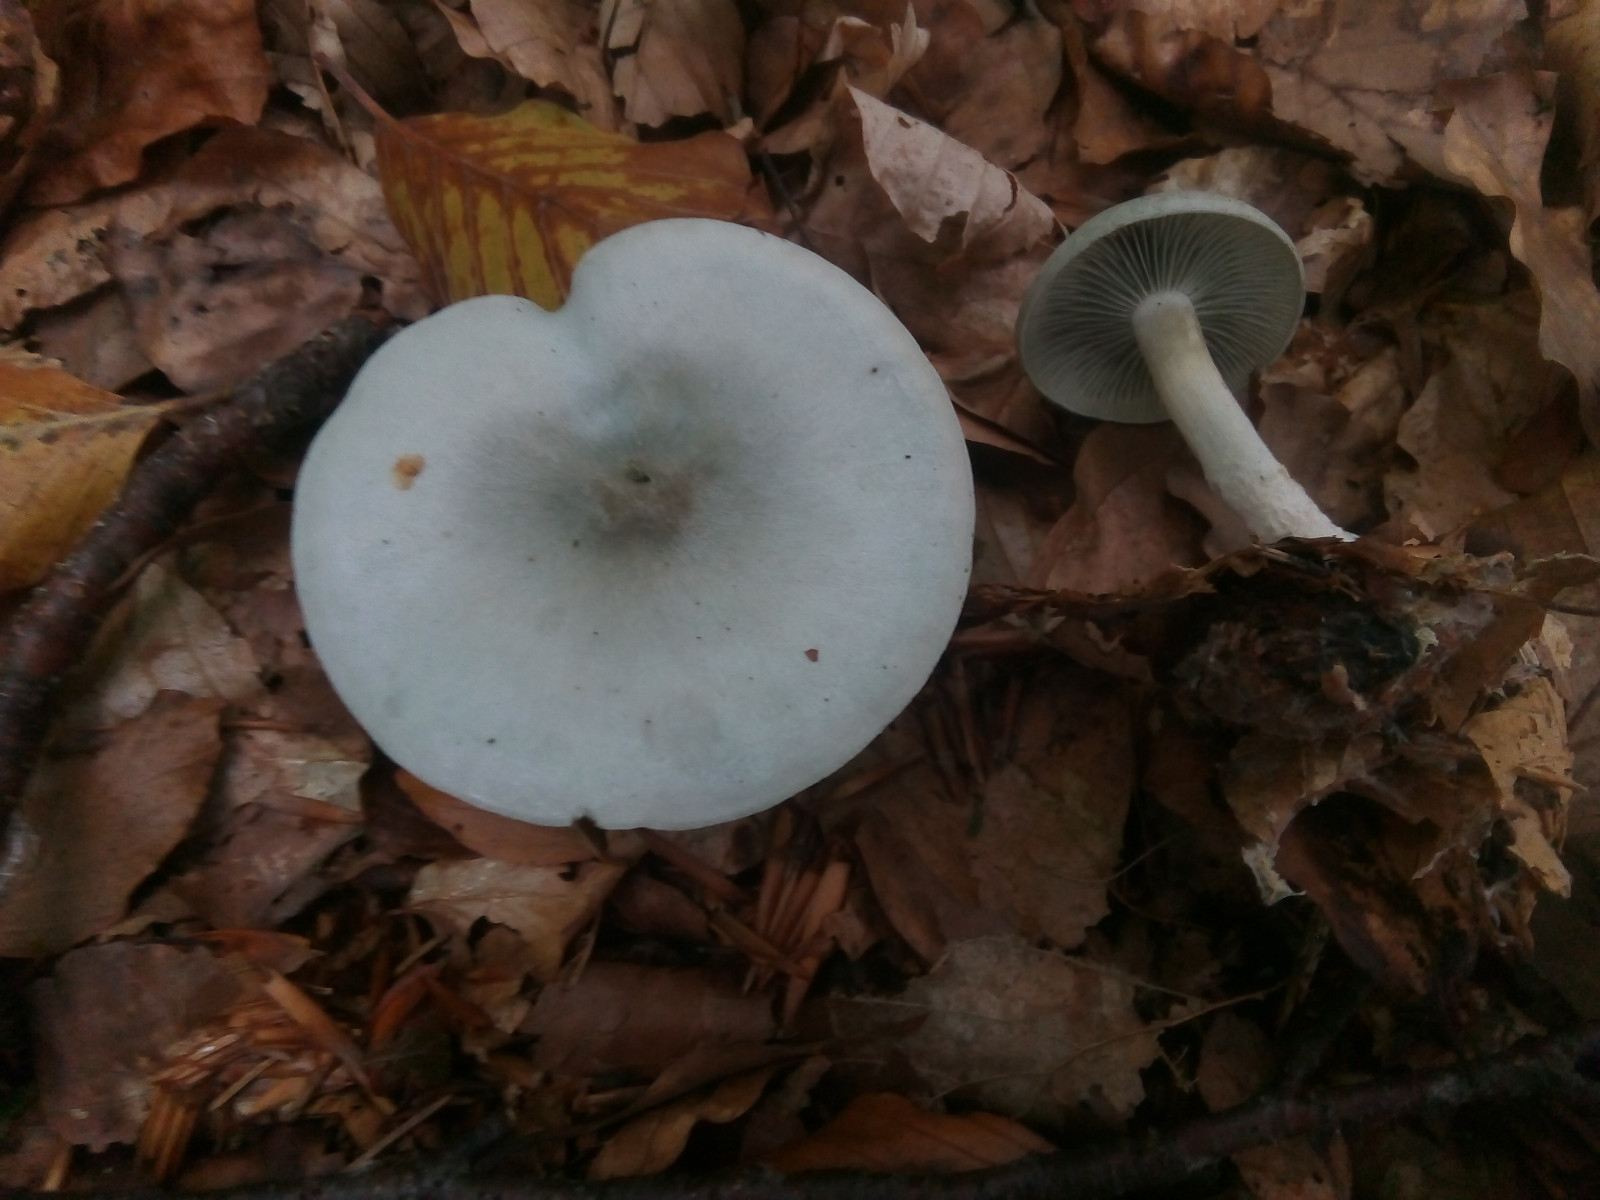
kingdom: Fungi
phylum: Basidiomycota
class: Agaricomycetes
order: Agaricales
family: Tricholomataceae
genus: Clitocybe
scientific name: Clitocybe odora
